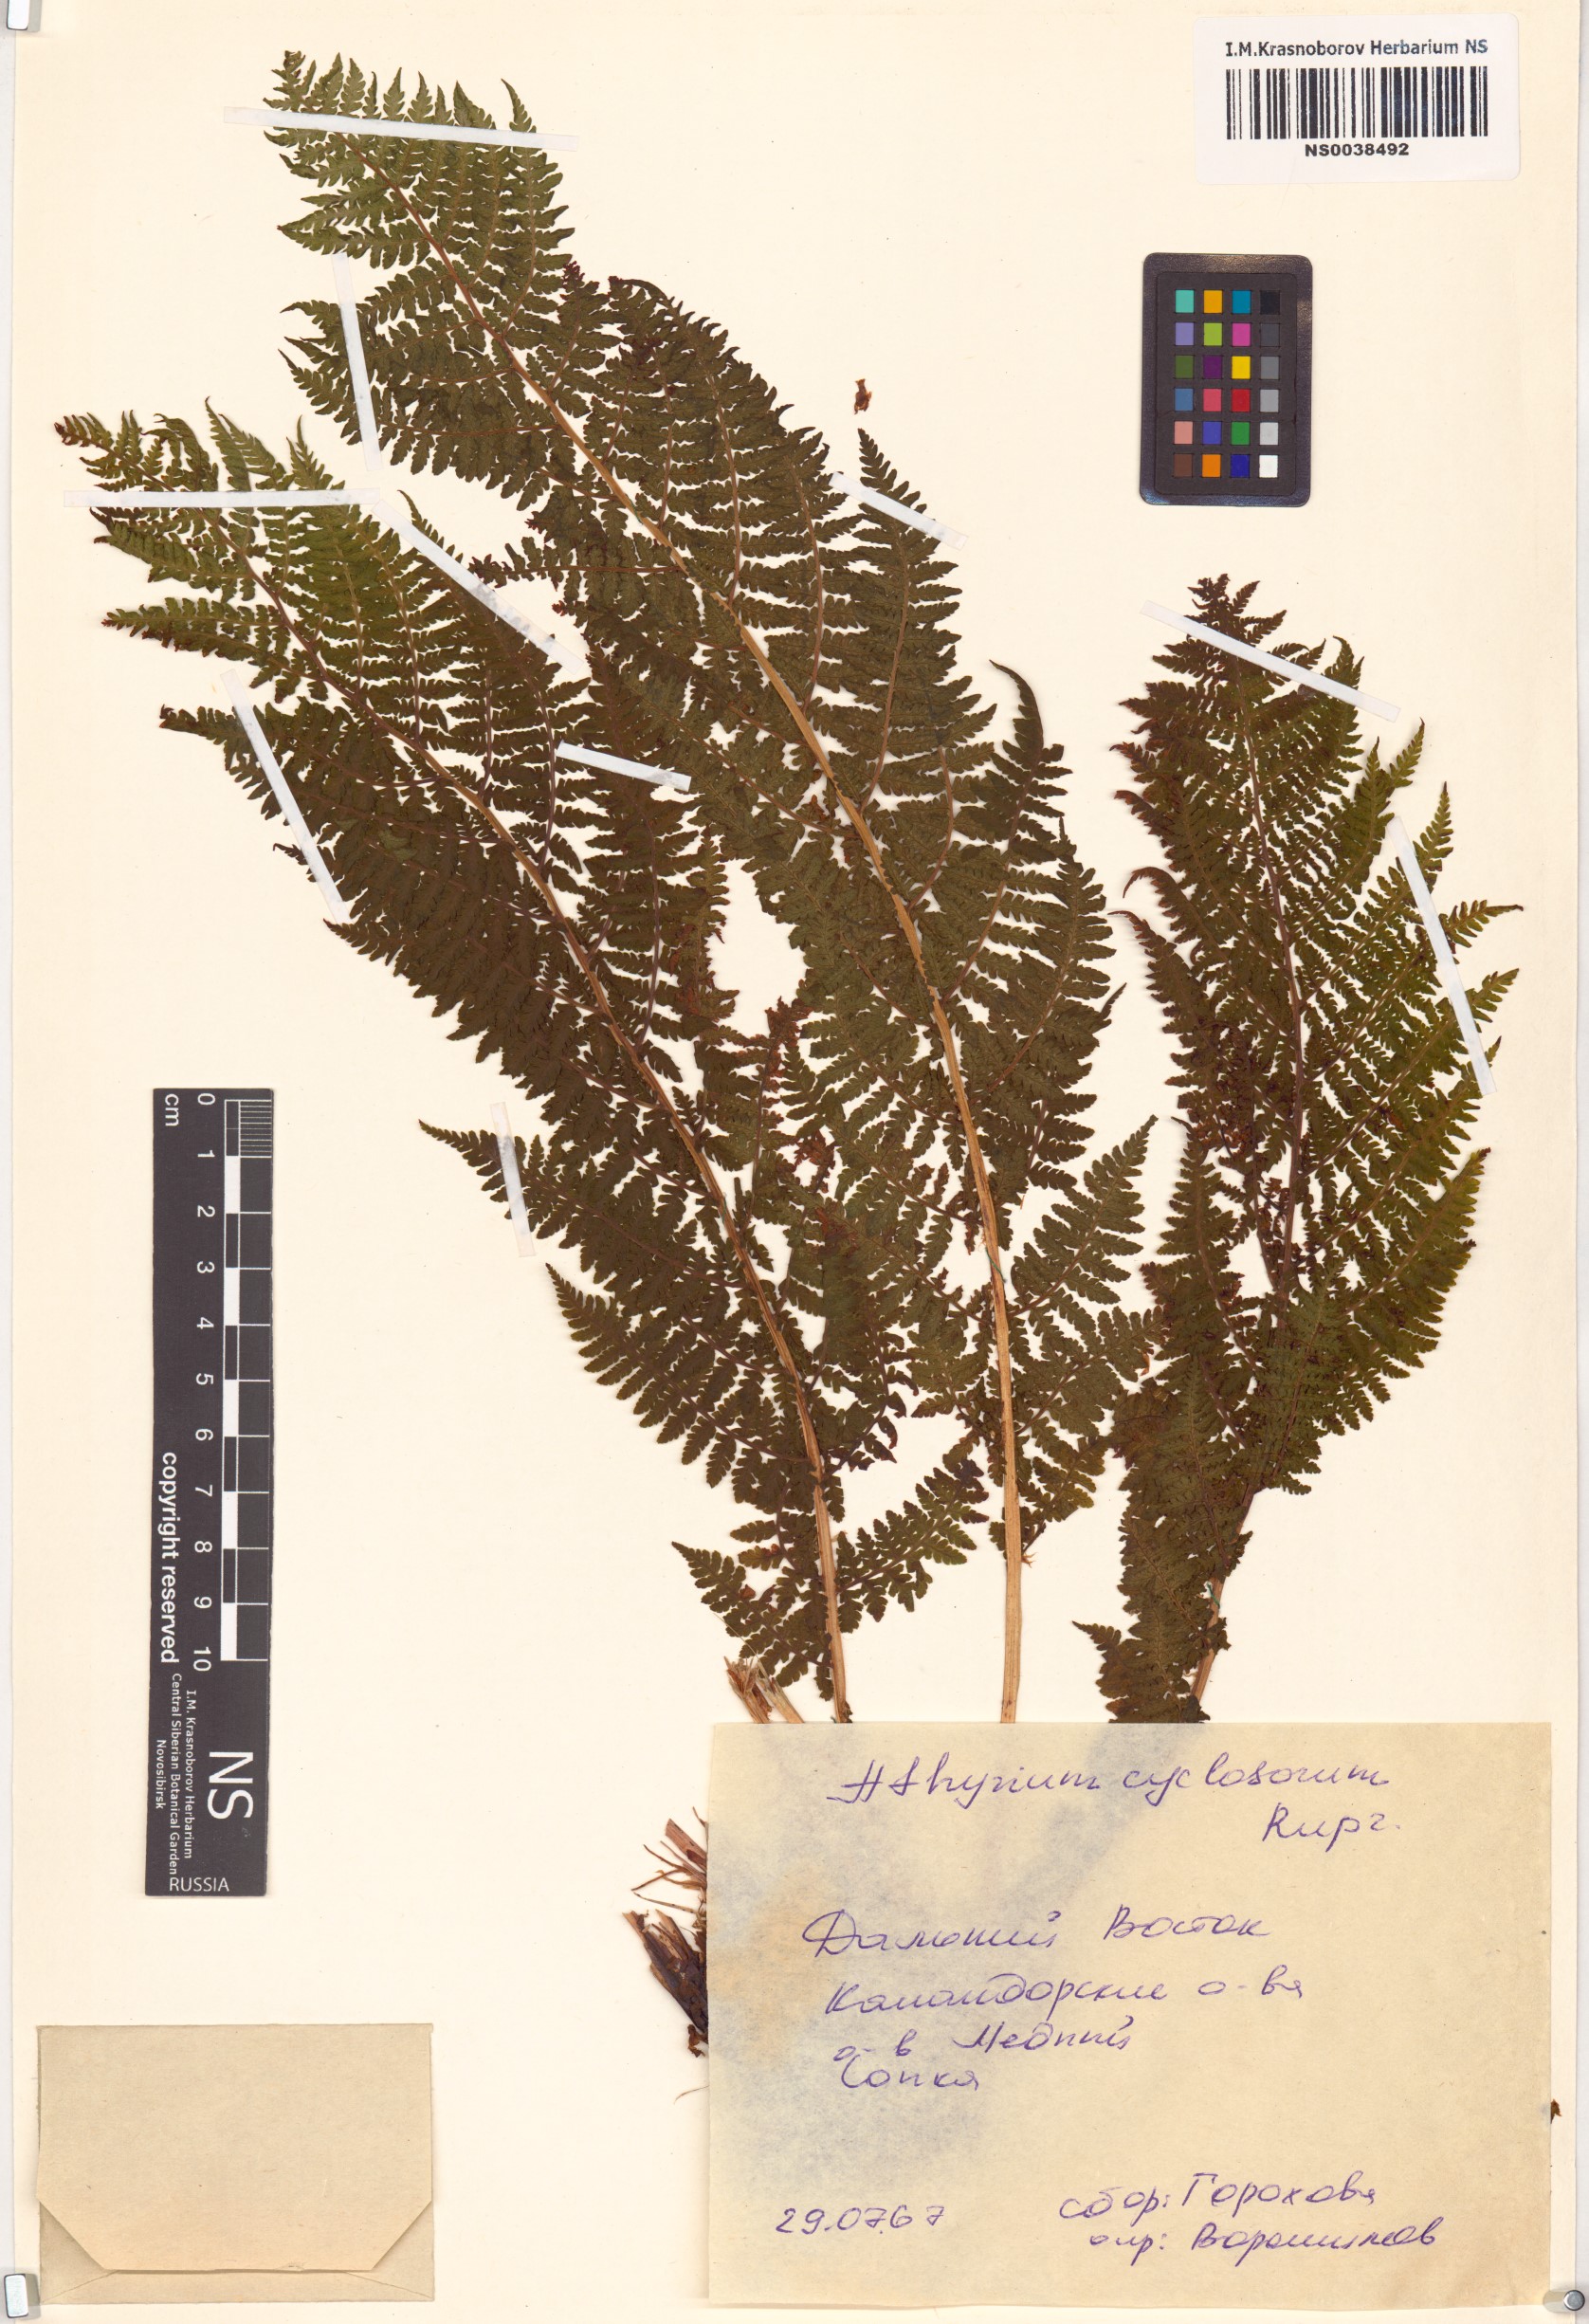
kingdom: Plantae
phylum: Tracheophyta
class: Polypodiopsida
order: Polypodiales
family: Athyriaceae
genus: Athyrium
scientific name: Athyrium cyclosorum
